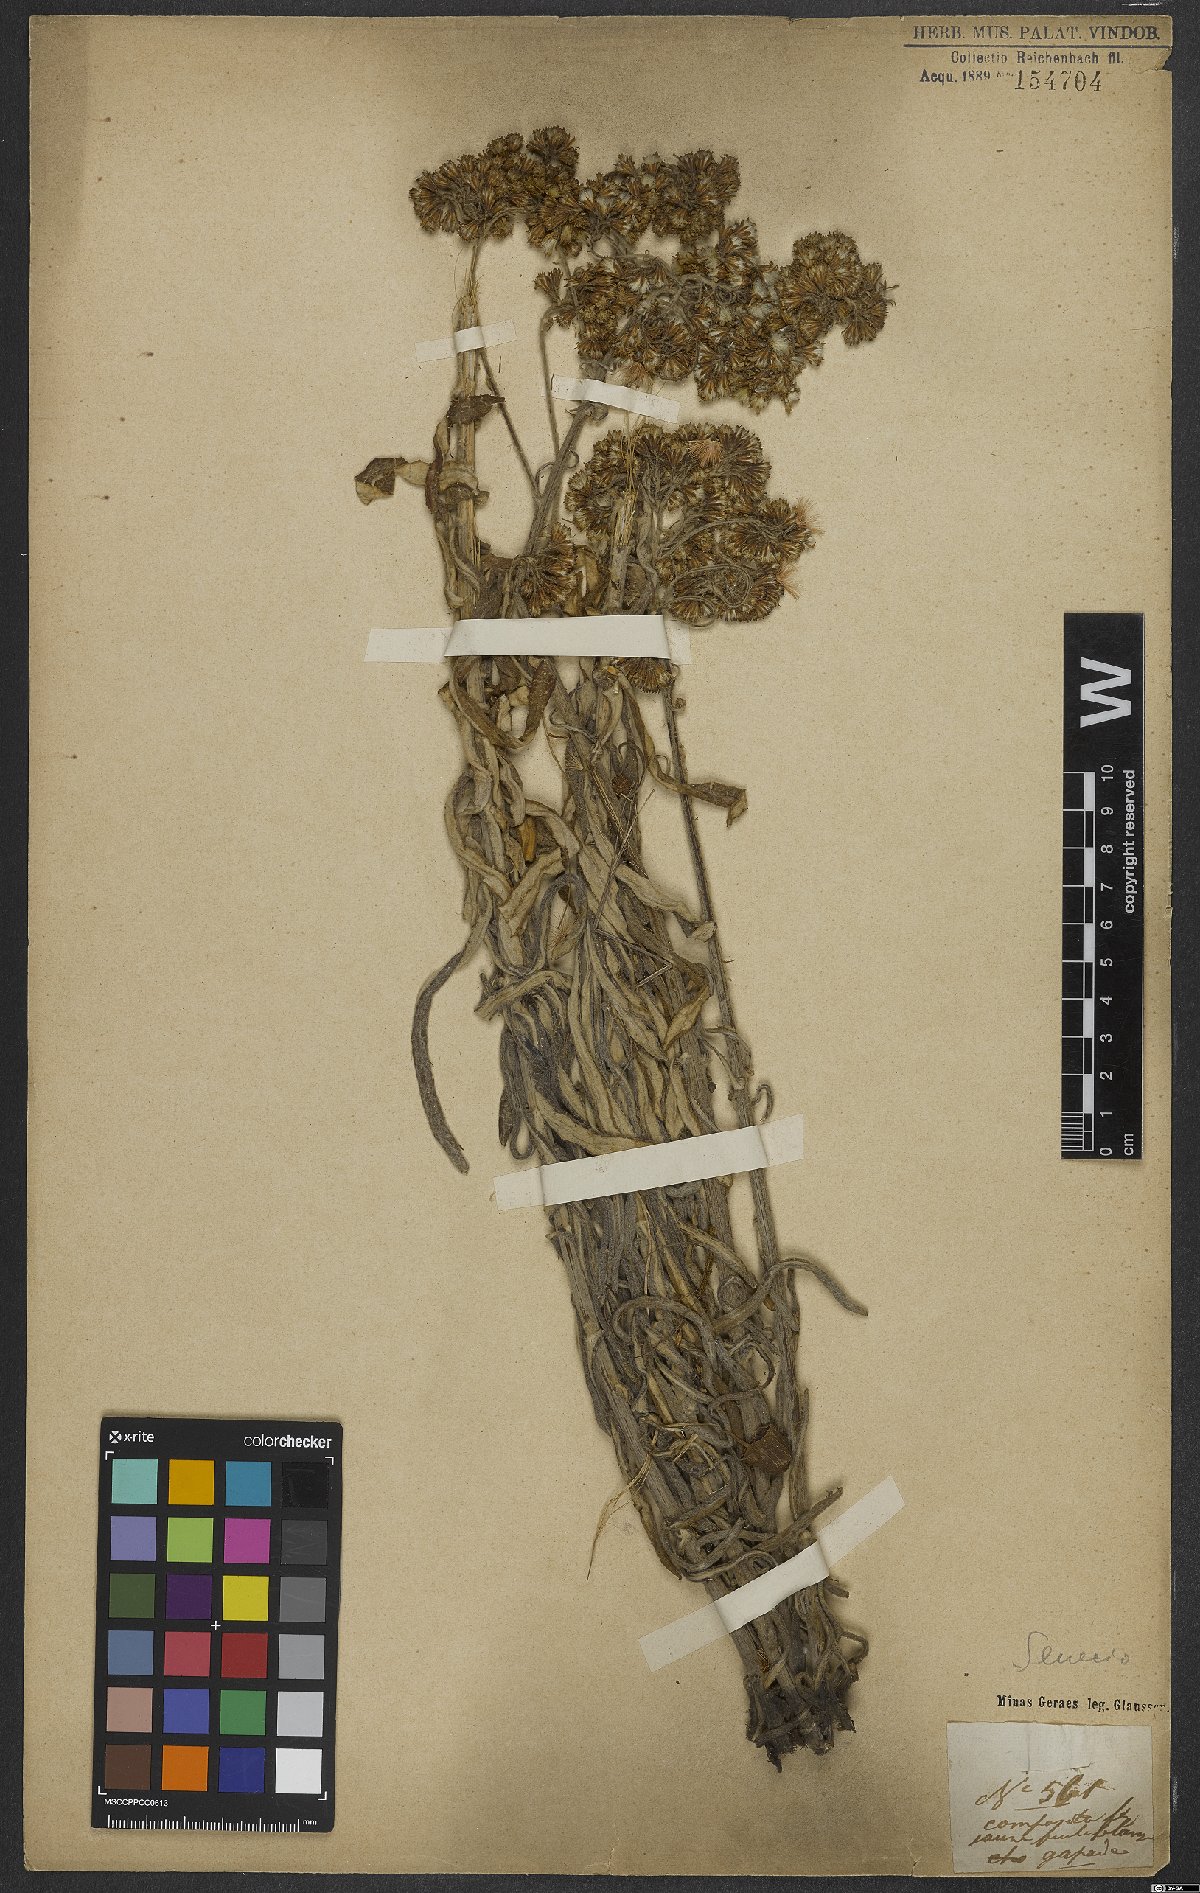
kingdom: Plantae
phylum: Tracheophyta
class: Magnoliopsida
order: Asterales
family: Asteraceae
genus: Senecio
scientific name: Senecio
